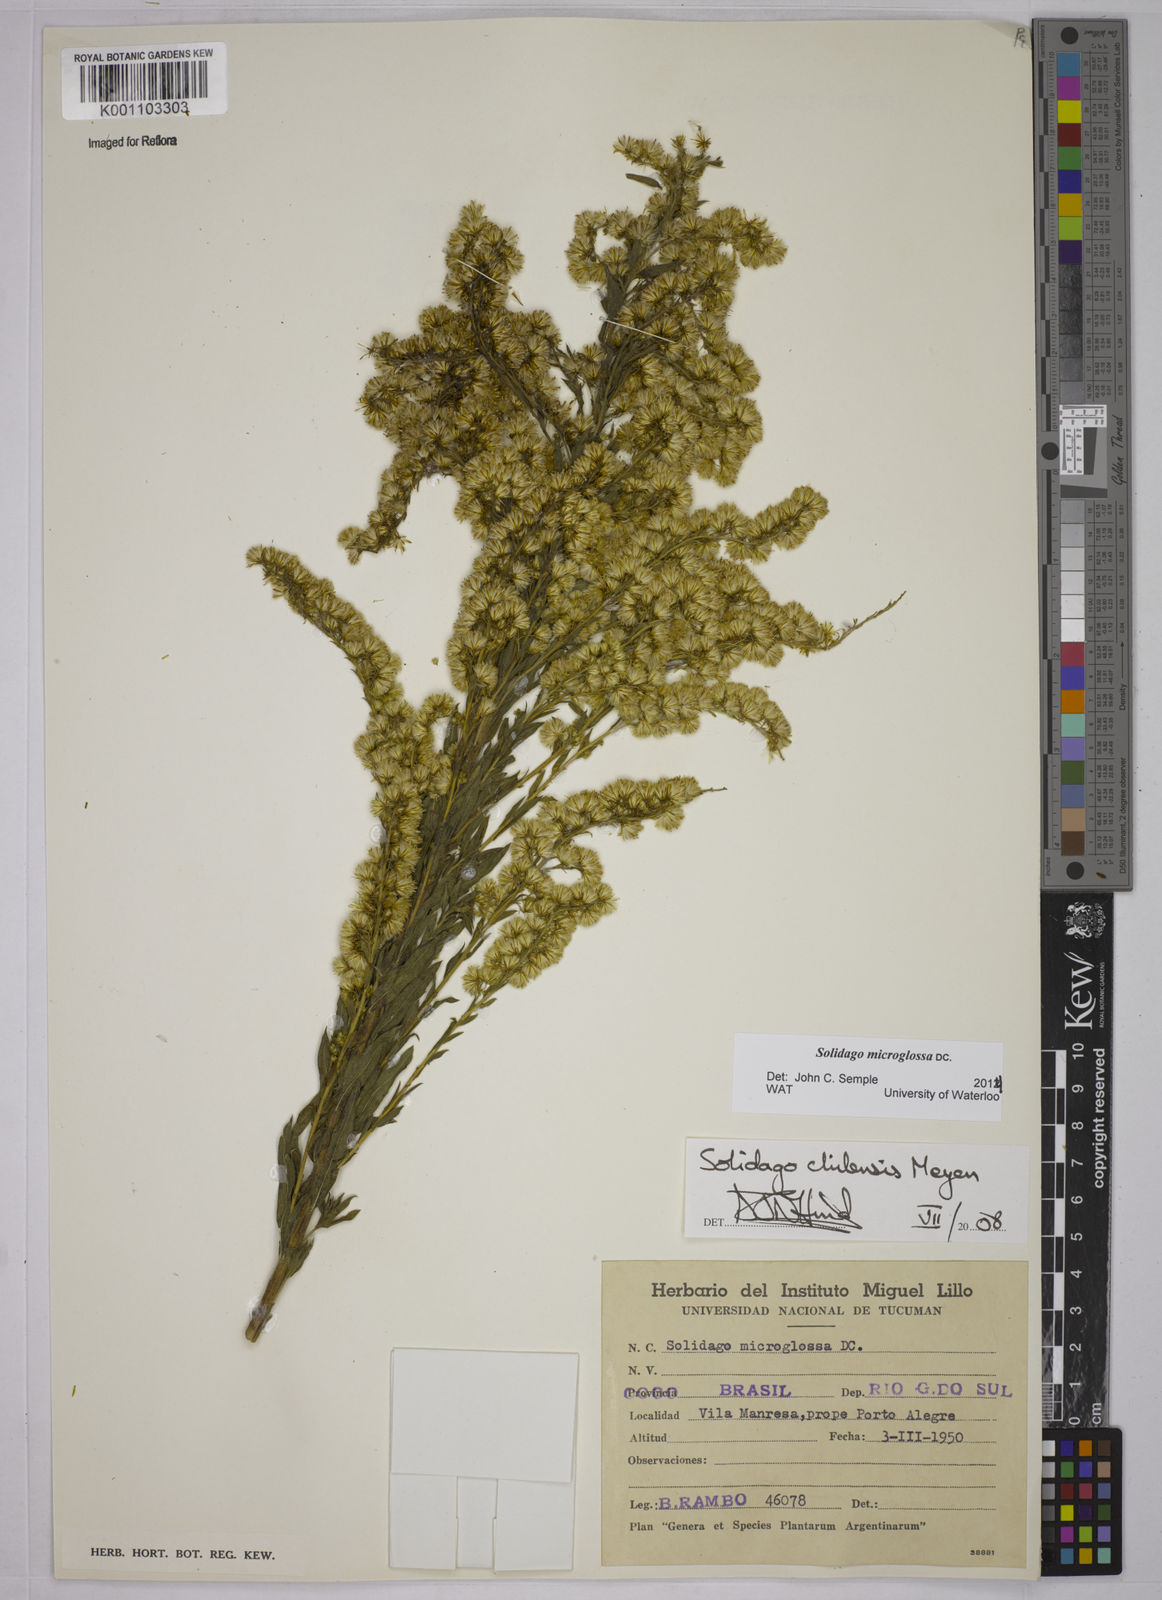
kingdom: Plantae
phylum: Tracheophyta
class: Magnoliopsida
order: Asterales
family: Asteraceae
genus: Solidago
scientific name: Solidago chilensis
